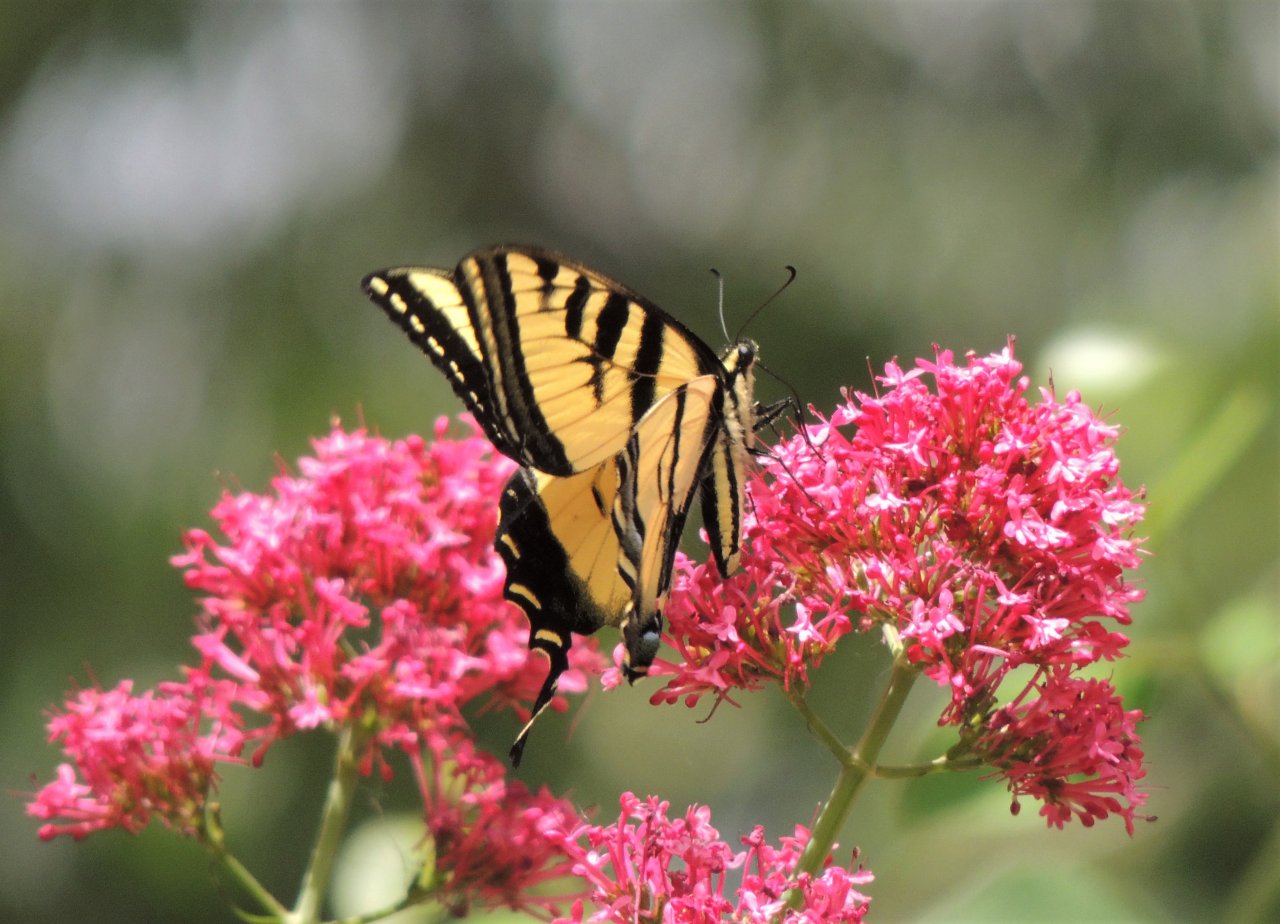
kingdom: Animalia
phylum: Arthropoda
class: Insecta
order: Lepidoptera
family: Papilionidae
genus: Pterourus
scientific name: Pterourus rutulus
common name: Western Tiger Swallowtail
